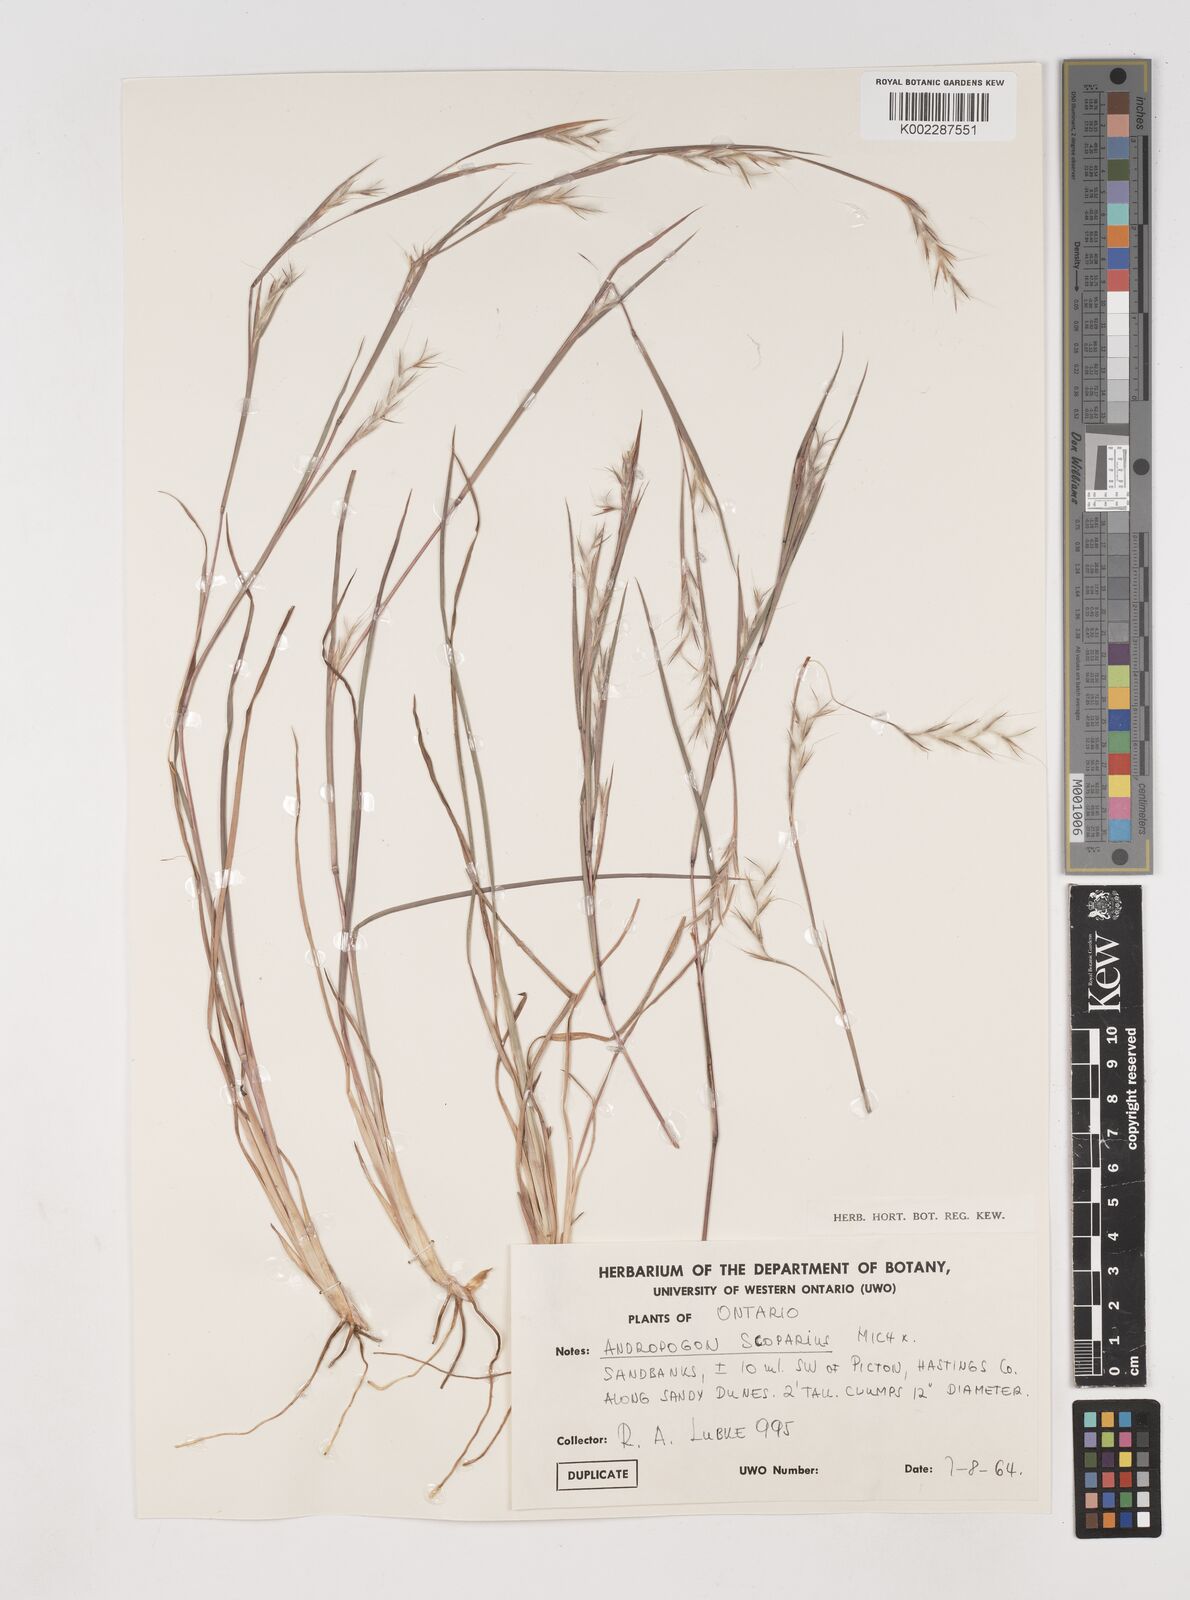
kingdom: Plantae
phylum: Tracheophyta
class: Liliopsida
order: Poales
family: Poaceae
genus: Schizachyrium
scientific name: Schizachyrium scoparium
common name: Little bluestem
